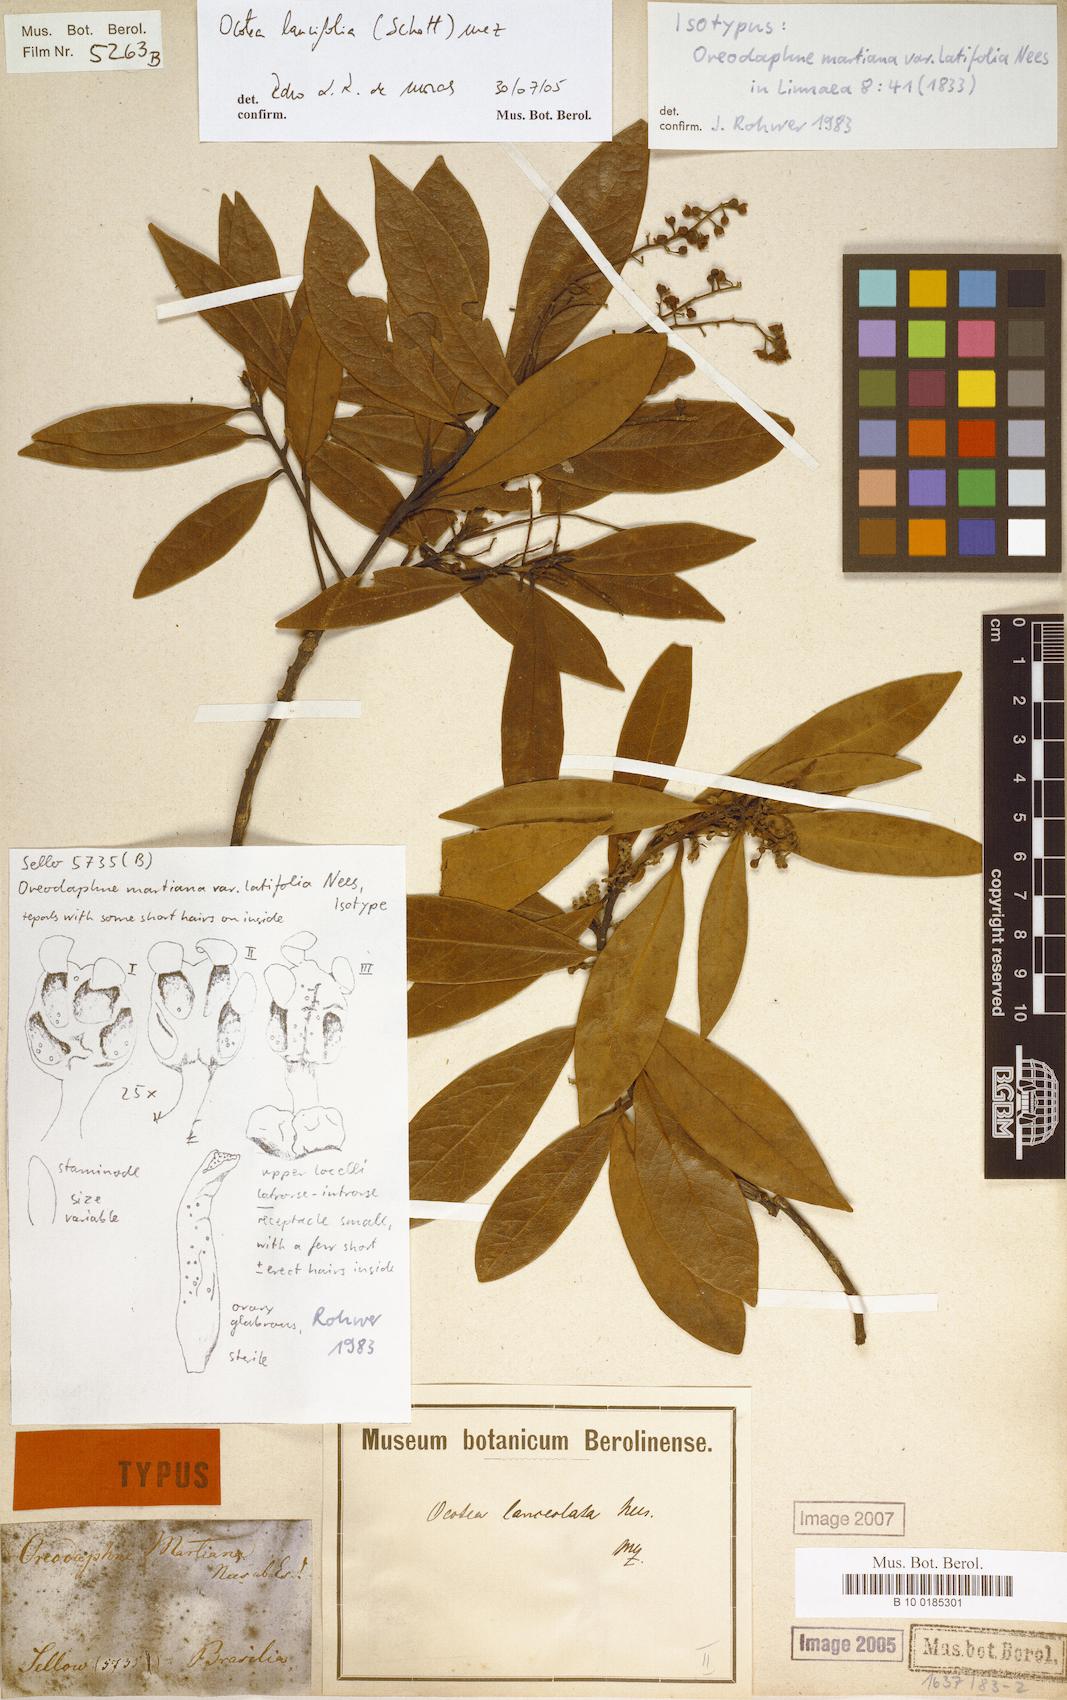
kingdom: Plantae
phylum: Tracheophyta
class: Magnoliopsida
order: Laurales
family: Lauraceae
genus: Ocotea
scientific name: Ocotea lancifolia
